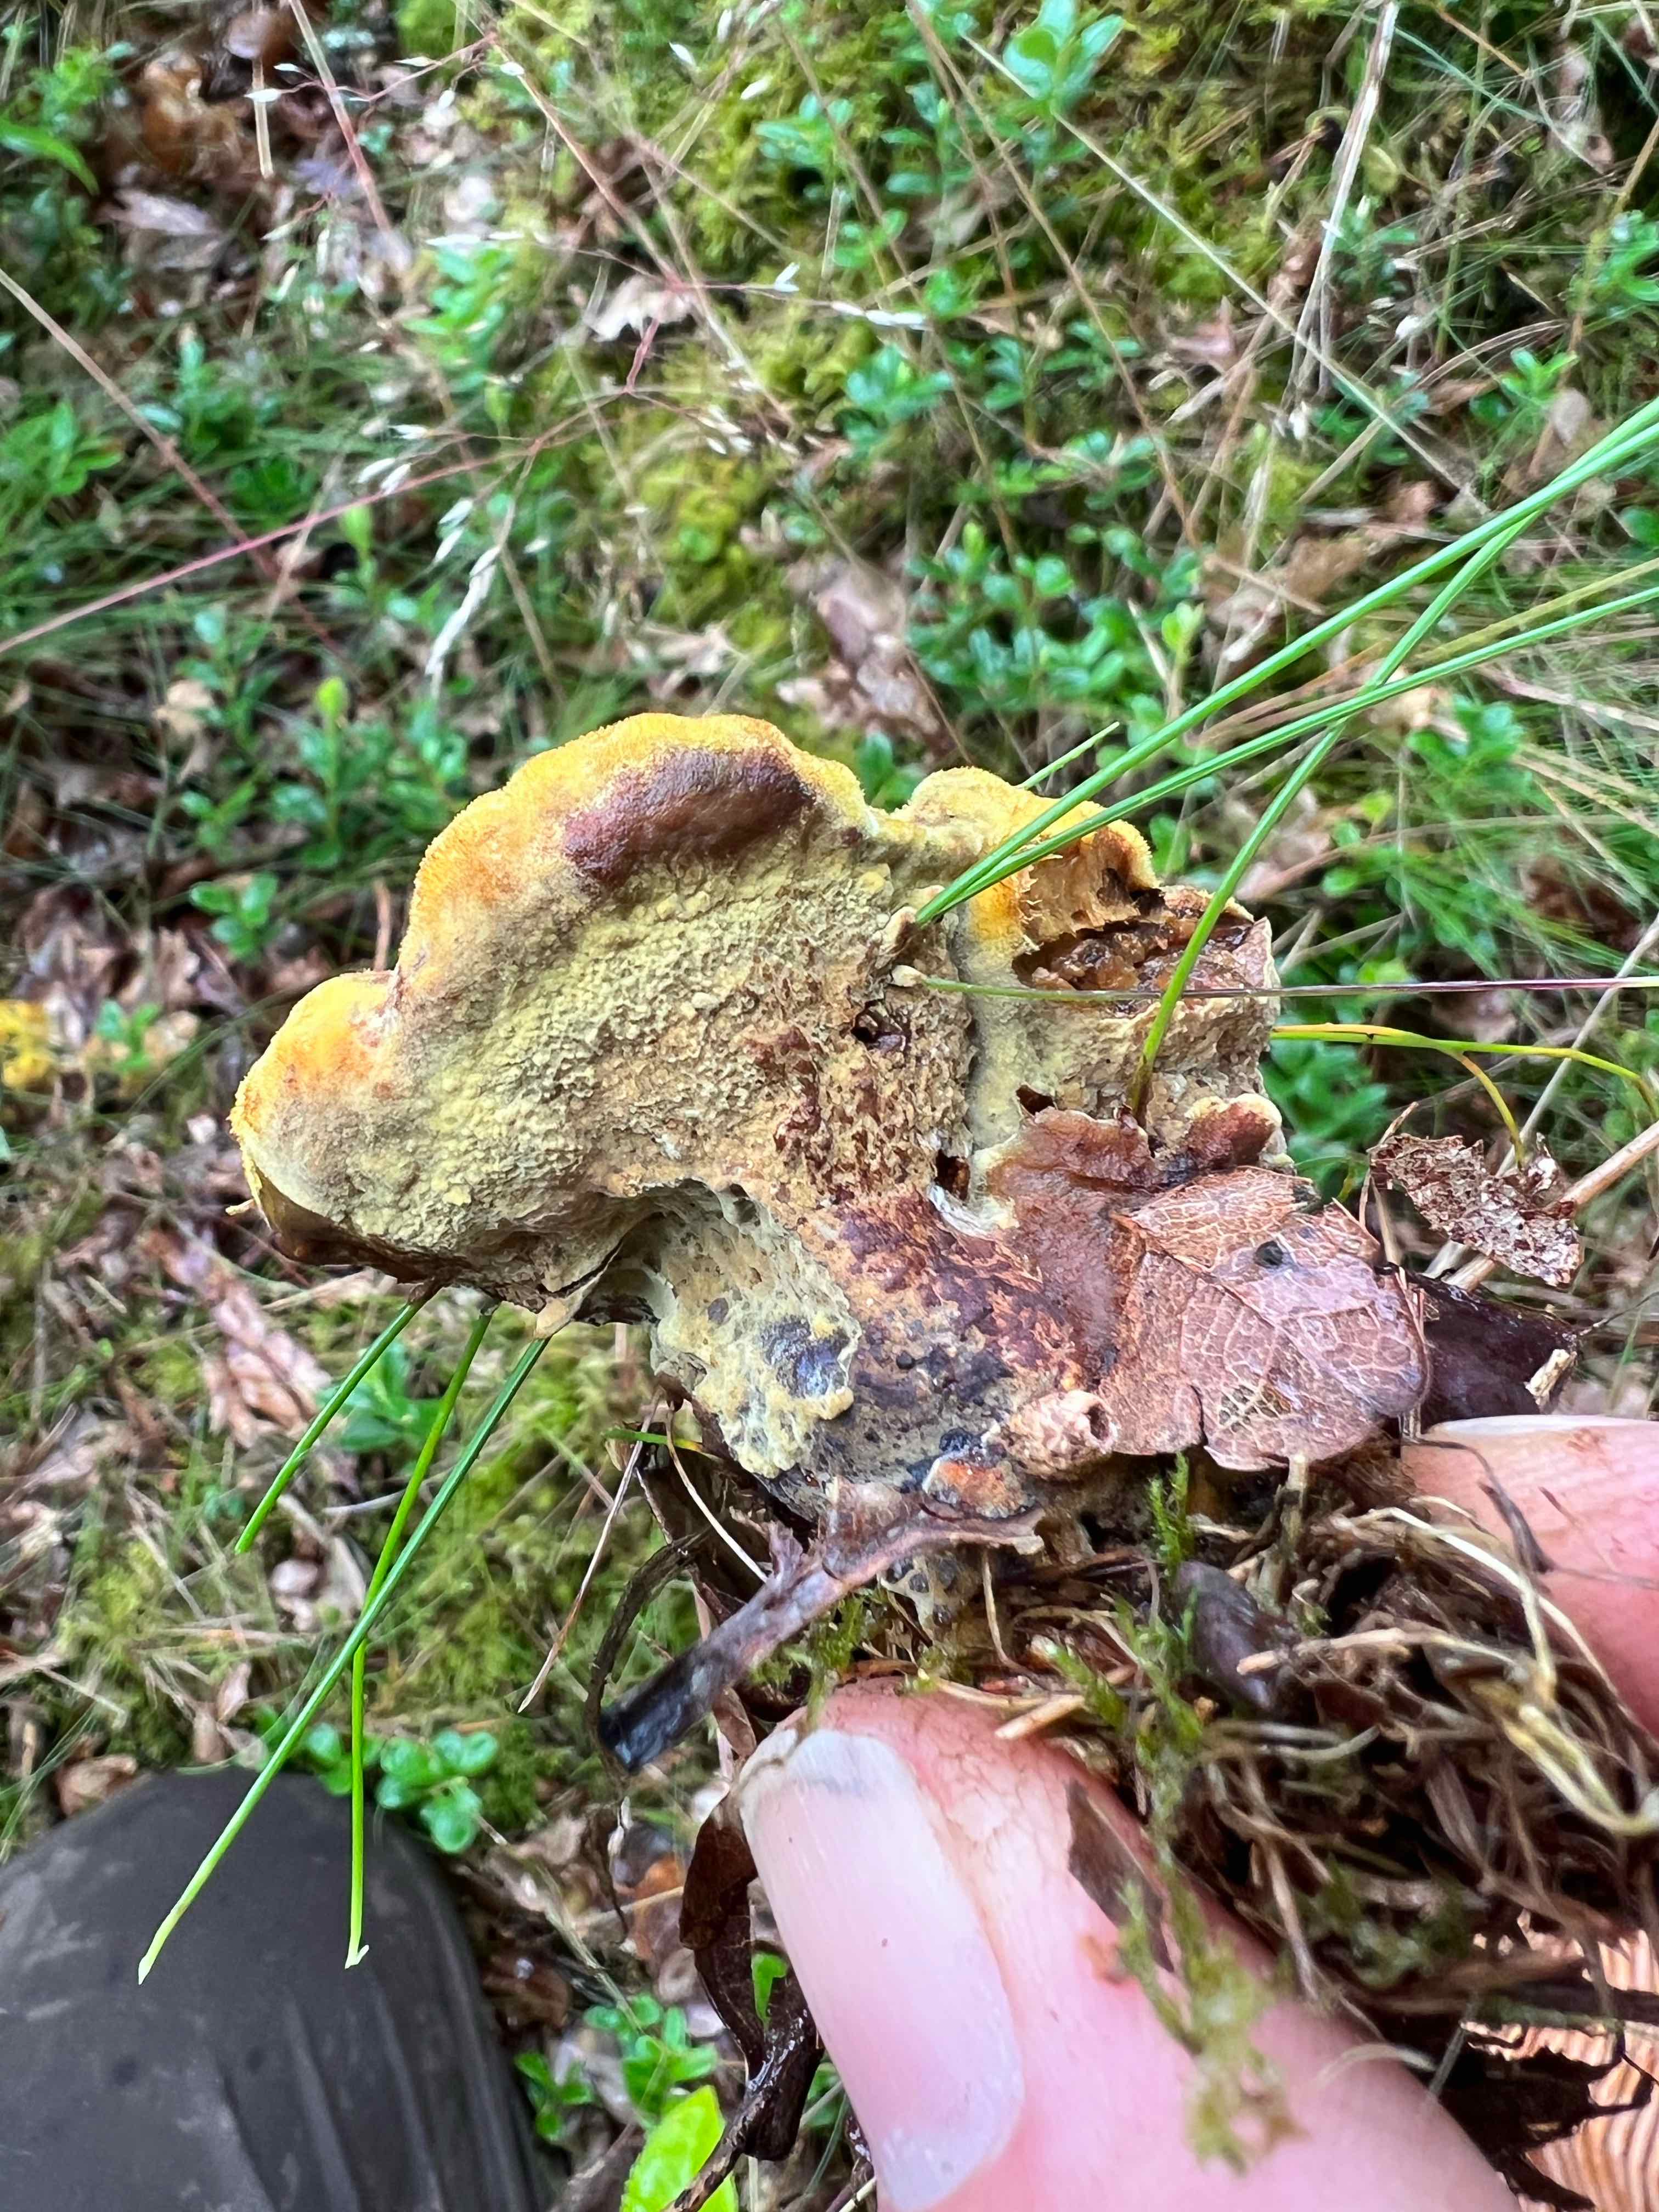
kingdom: Fungi
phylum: Basidiomycota
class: Agaricomycetes
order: Polyporales
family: Laetiporaceae
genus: Phaeolus
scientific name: Phaeolus schweinitzii
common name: brunporesvamp
